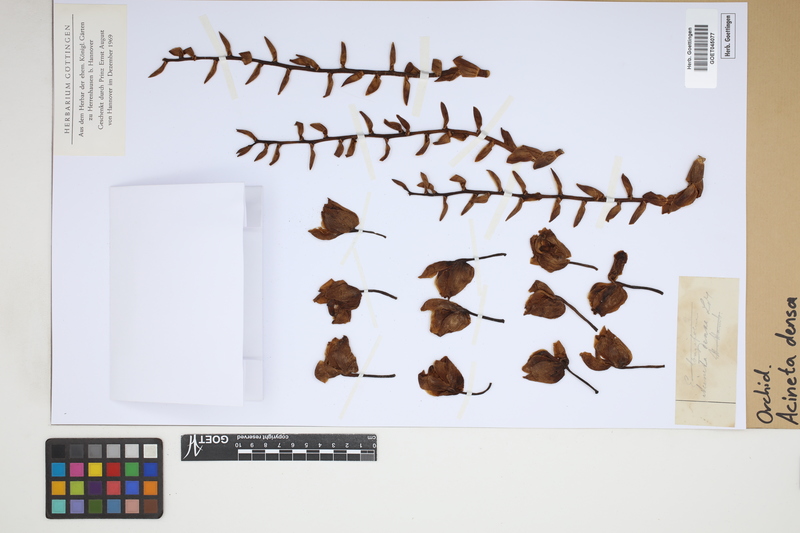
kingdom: Plantae
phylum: Tracheophyta
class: Liliopsida
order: Asparagales
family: Orchidaceae
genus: Acineta
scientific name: Acineta densa
